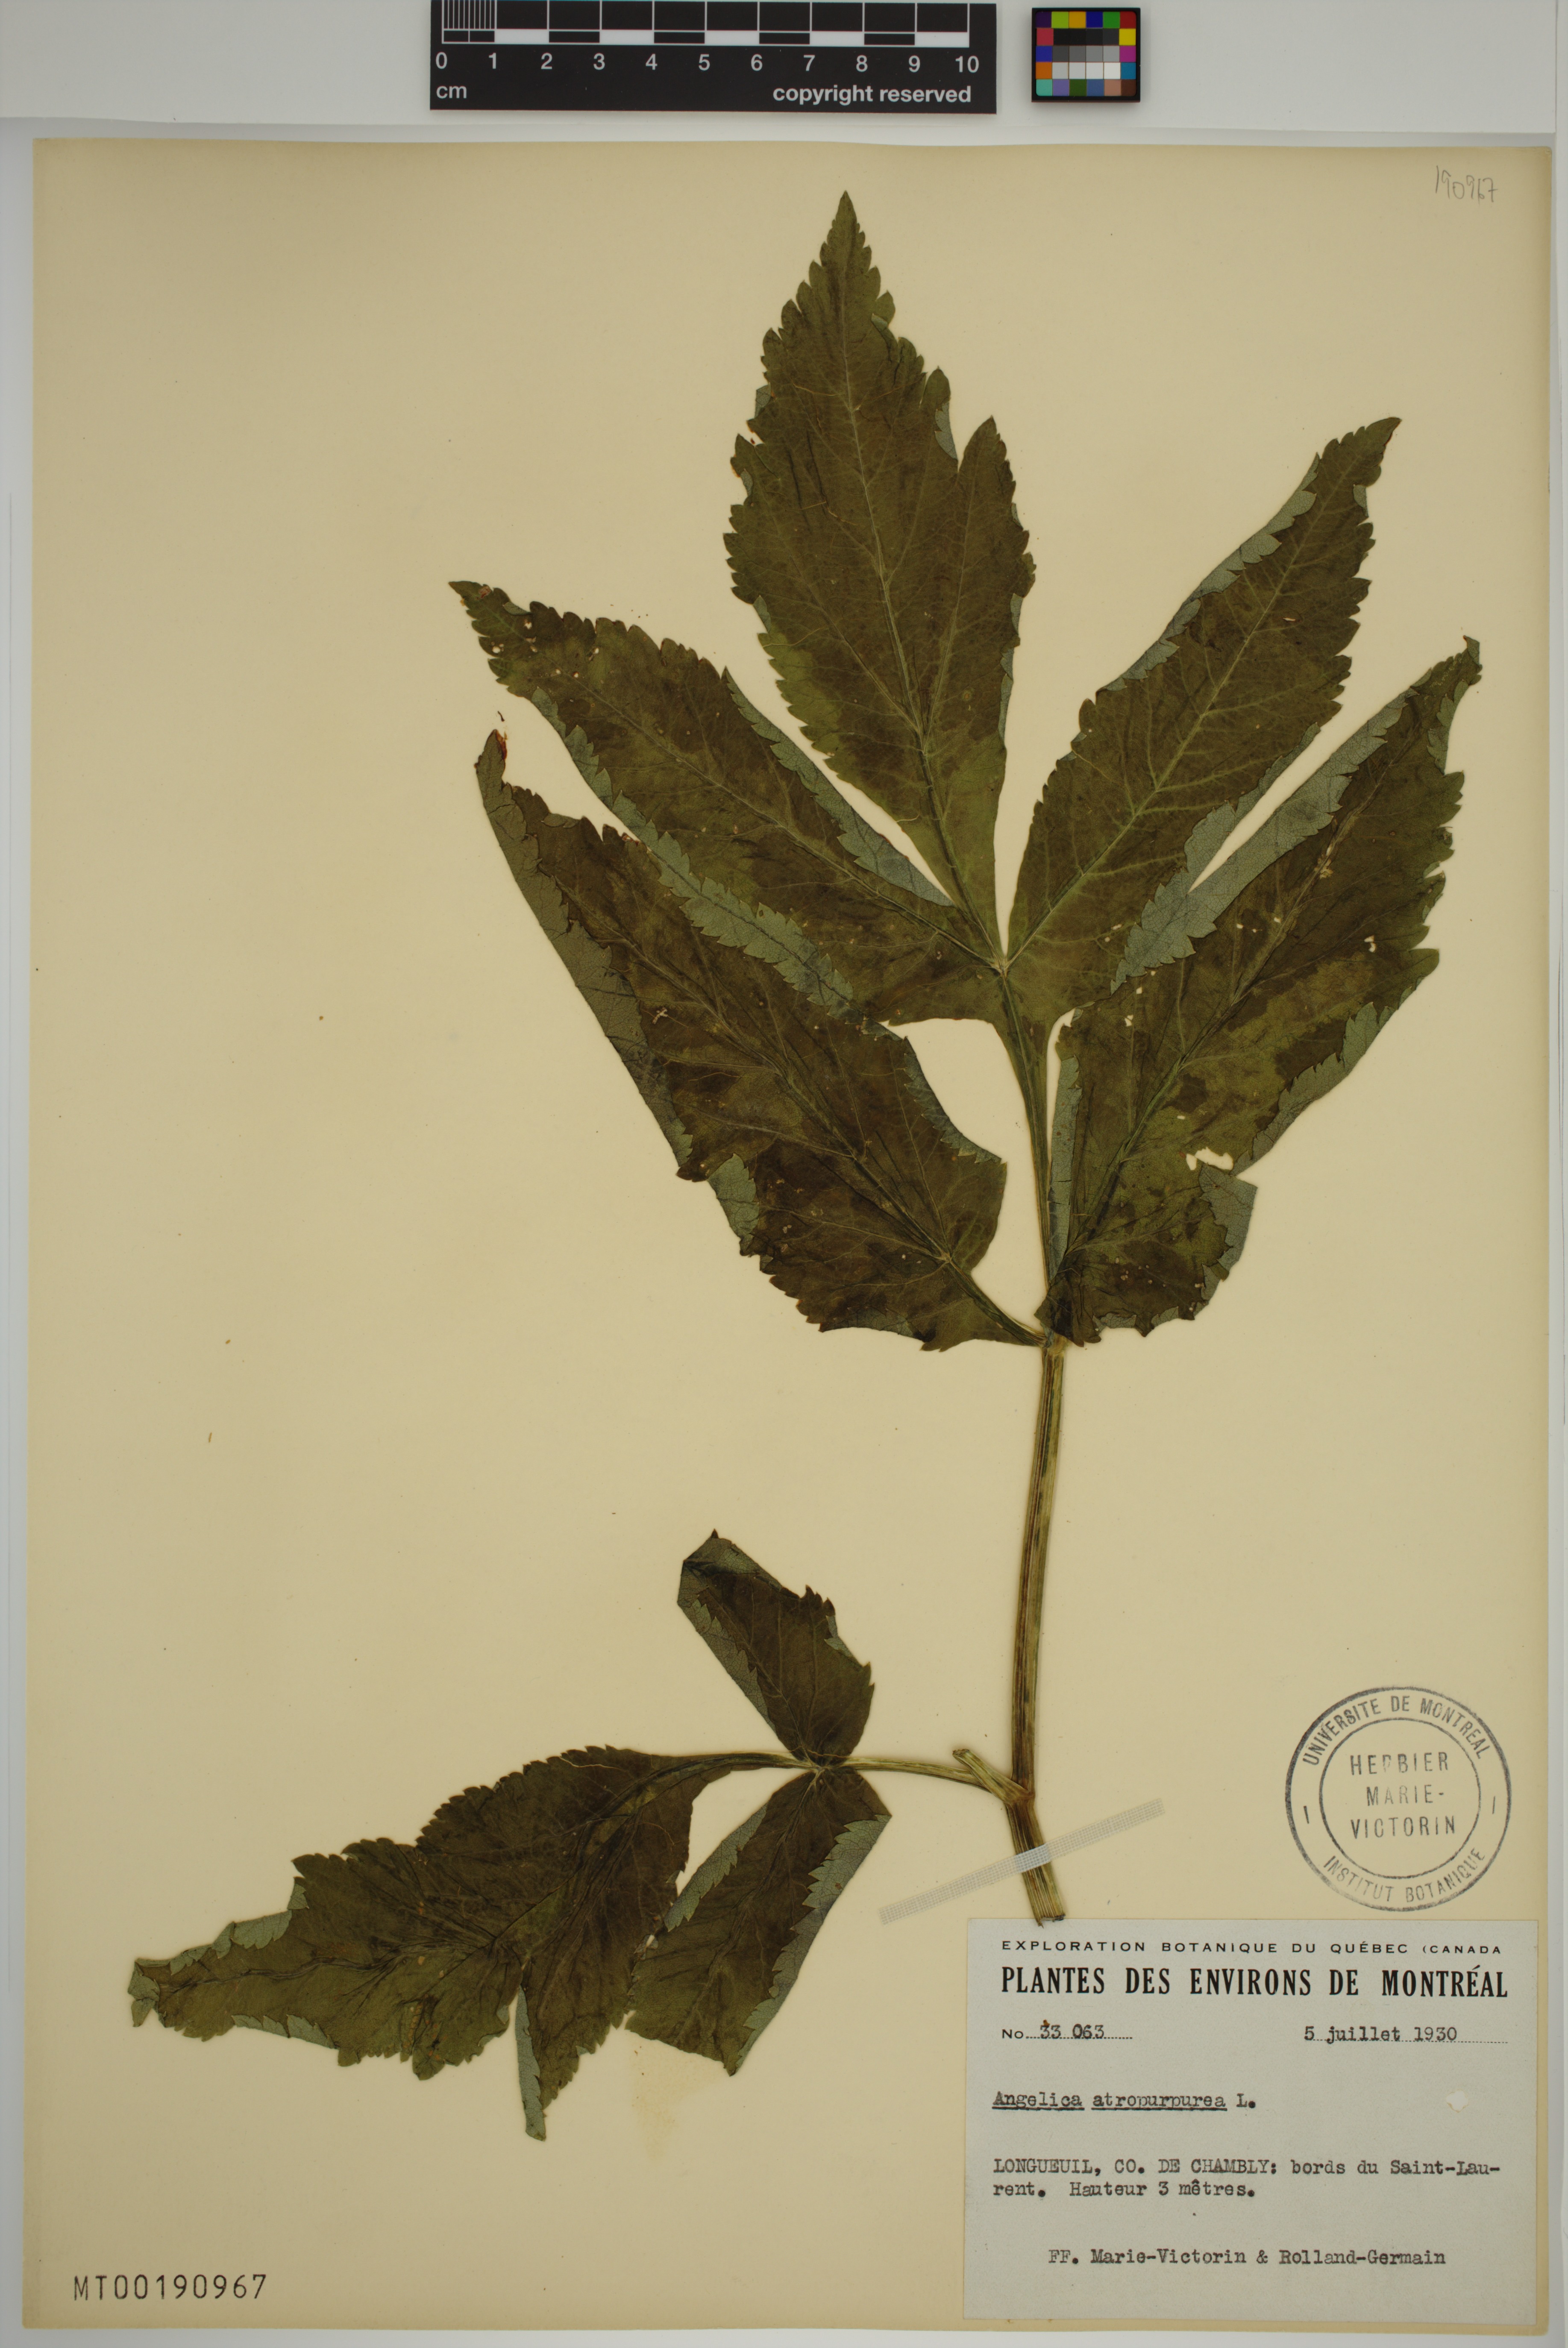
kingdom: Plantae
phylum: Tracheophyta
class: Magnoliopsida
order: Apiales
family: Apiaceae
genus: Angelica
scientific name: Angelica atropurpurea
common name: Great angelica
